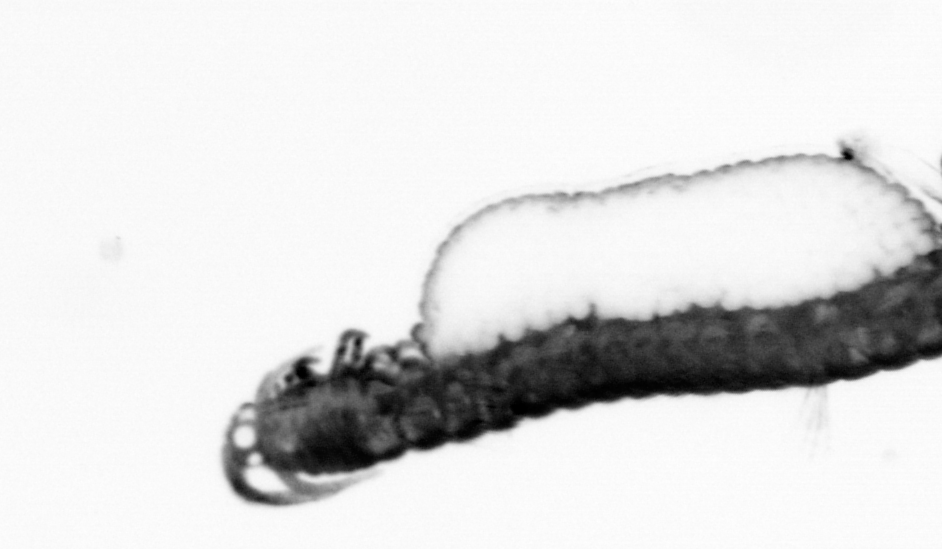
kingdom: Animalia
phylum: Annelida
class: Polychaeta
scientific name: Polychaeta
